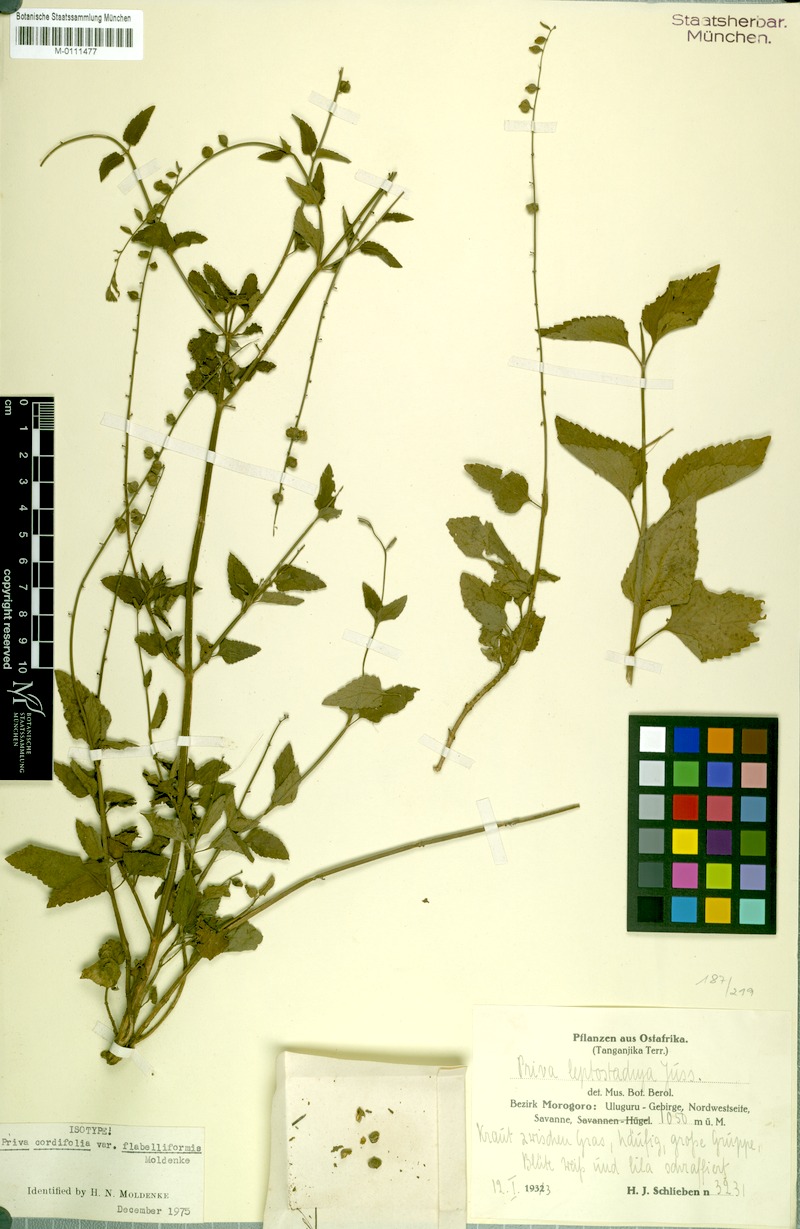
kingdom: Plantae
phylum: Tracheophyta
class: Magnoliopsida
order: Lamiales
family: Verbenaceae
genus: Priva
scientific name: Priva flabelliformis
